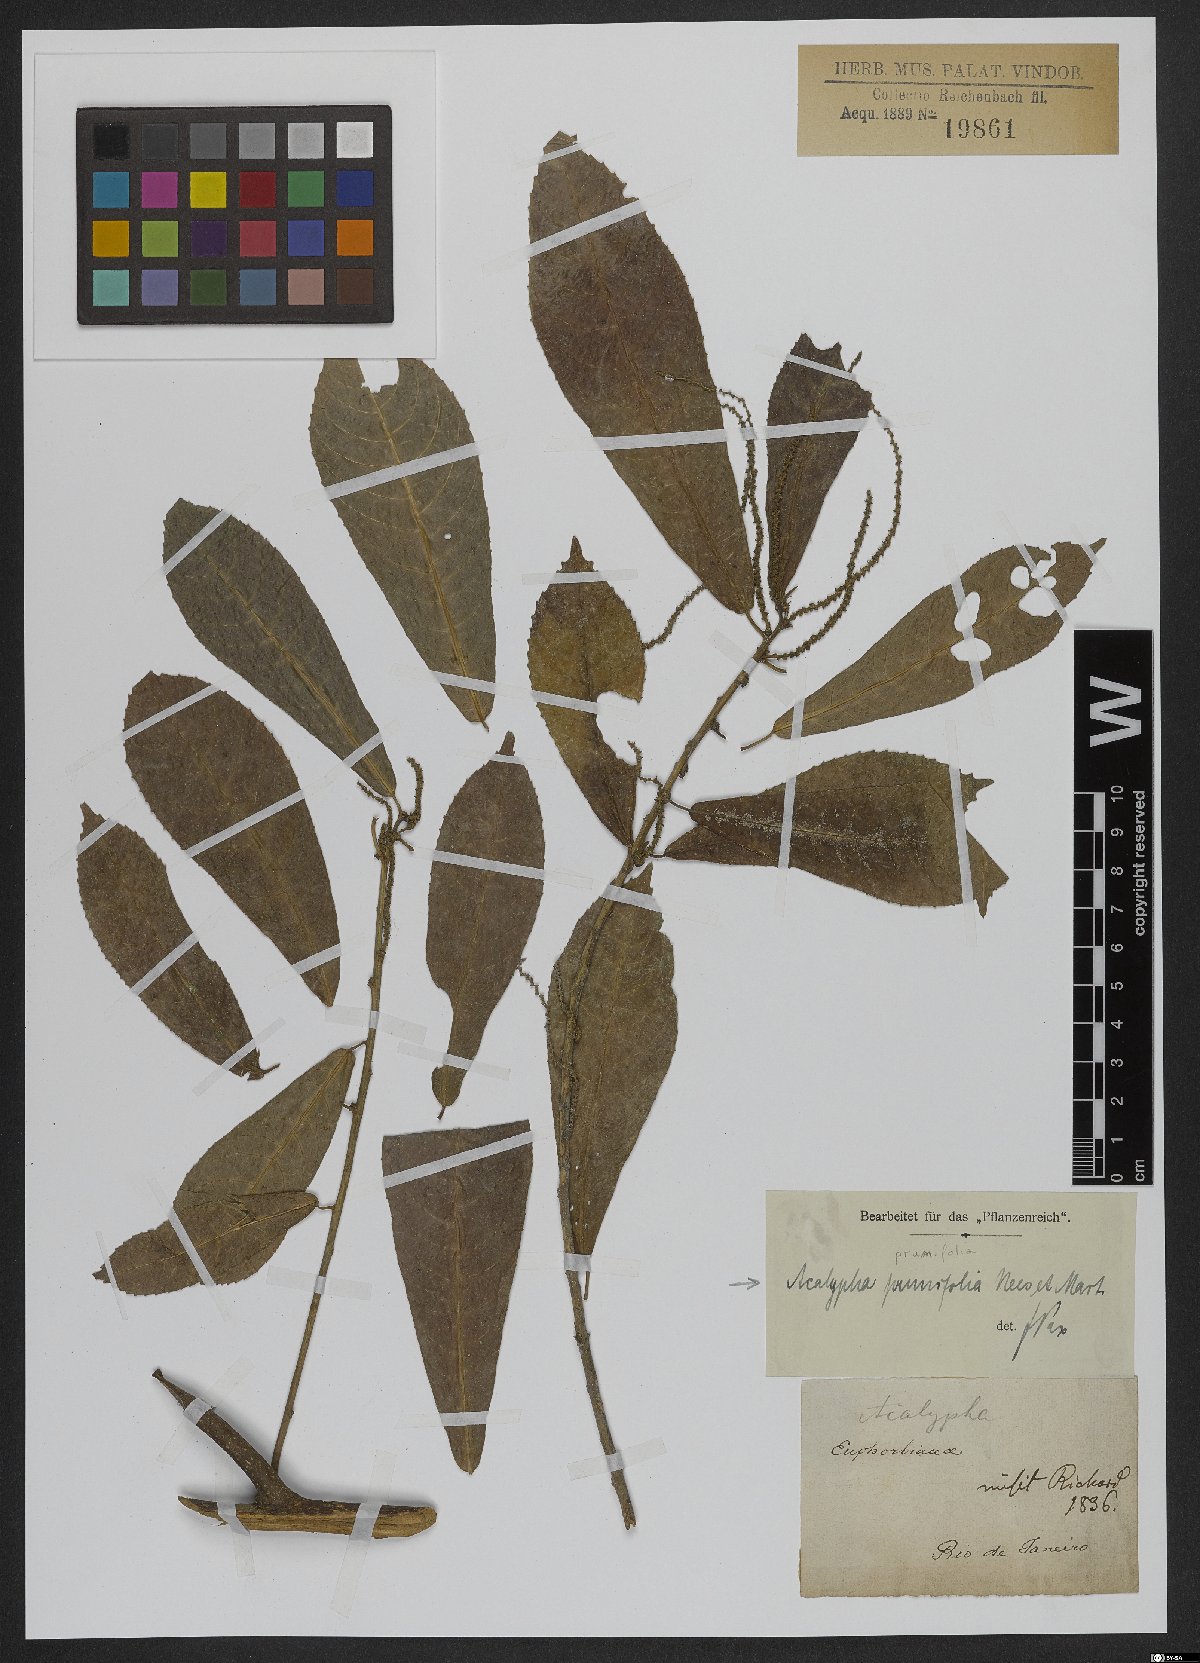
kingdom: Plantae
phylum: Tracheophyta
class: Magnoliopsida
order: Malpighiales
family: Euphorbiaceae
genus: Acalypha
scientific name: Acalypha klotzschii
